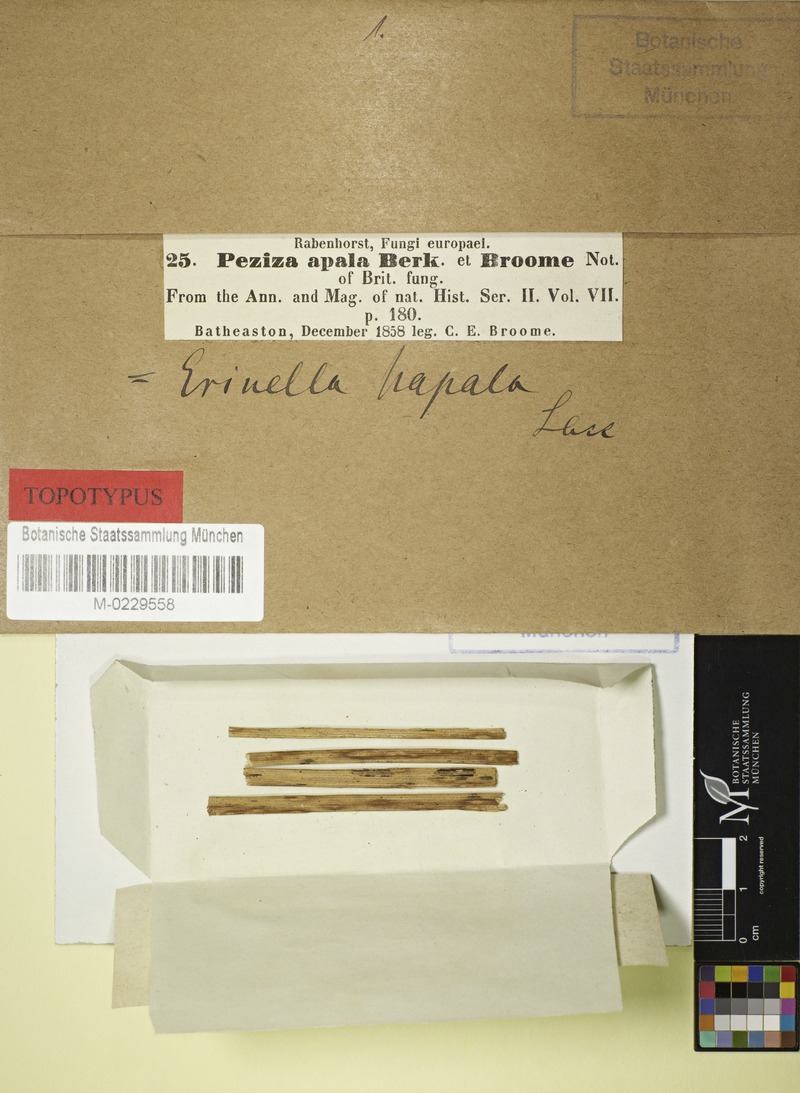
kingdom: Fungi
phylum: Ascomycota
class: Leotiomycetes
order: Helotiales
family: Lachnaceae
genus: Lachnum
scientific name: Lachnum apalum
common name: Rush disco
